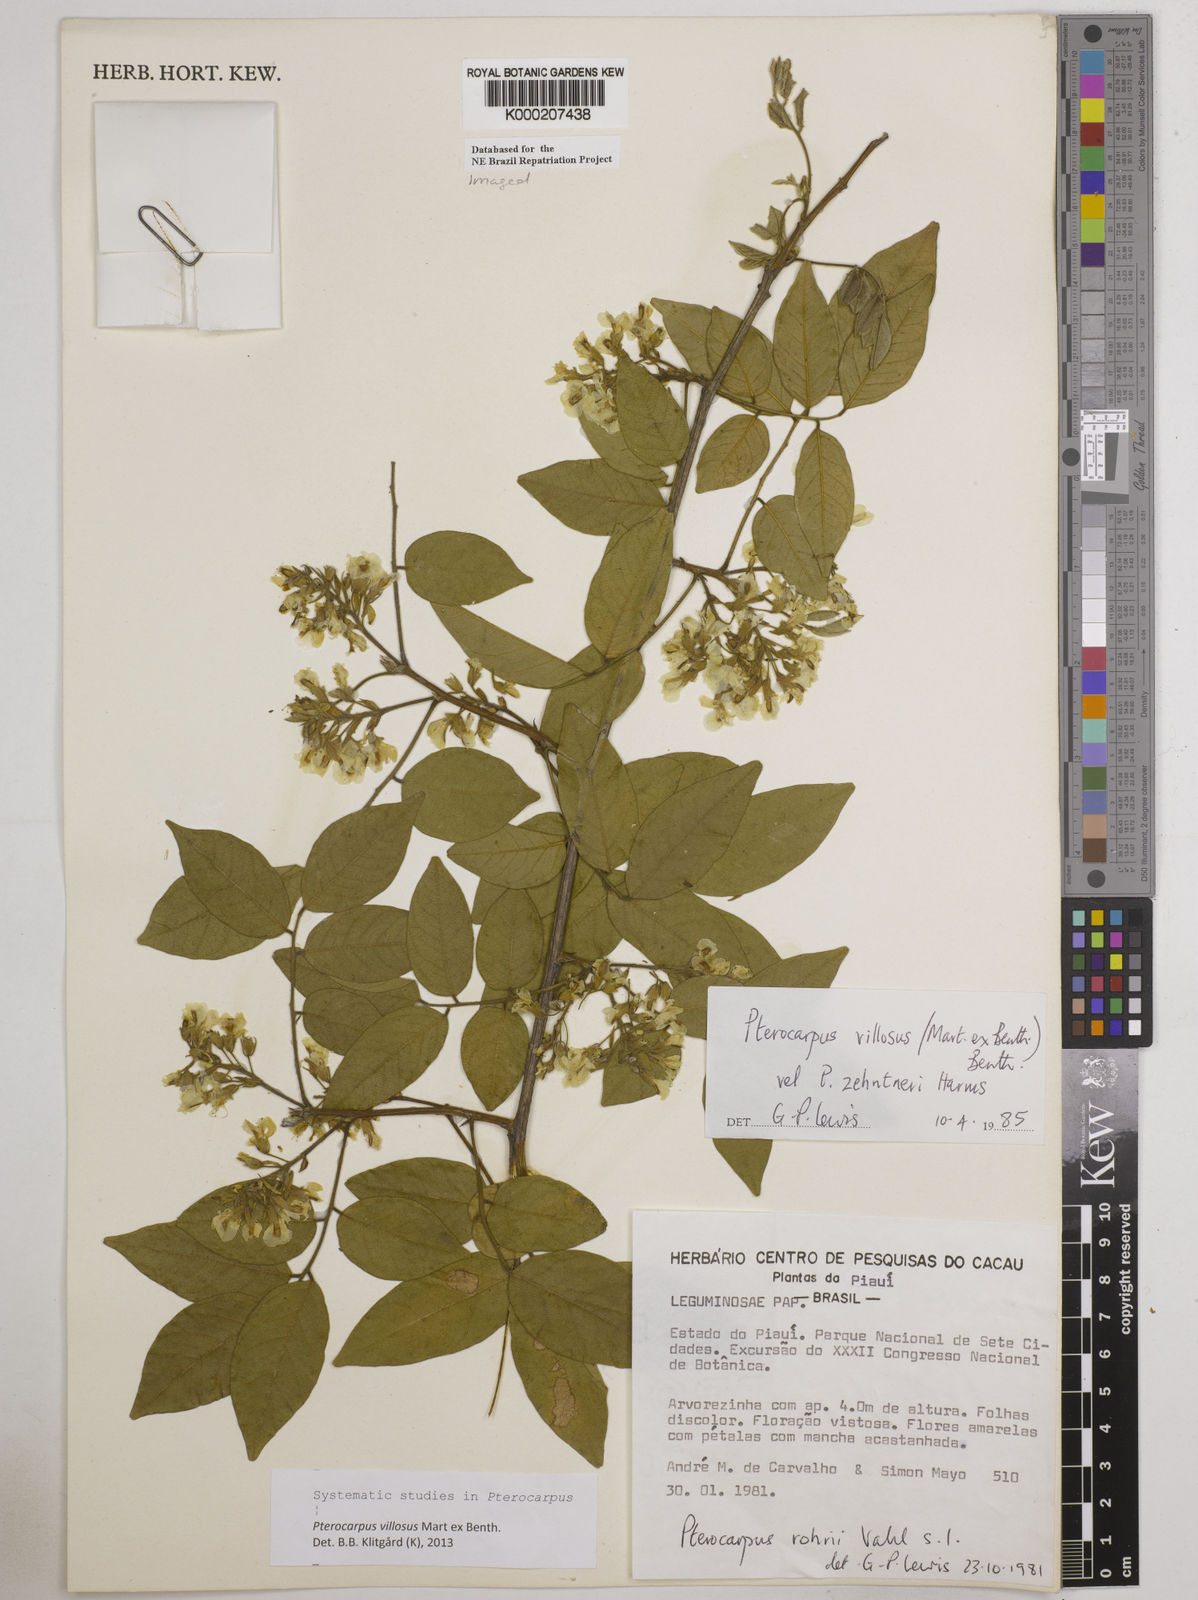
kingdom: Plantae
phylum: Tracheophyta
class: Magnoliopsida
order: Fabales
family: Fabaceae
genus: Pterocarpus
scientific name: Pterocarpus villosus
